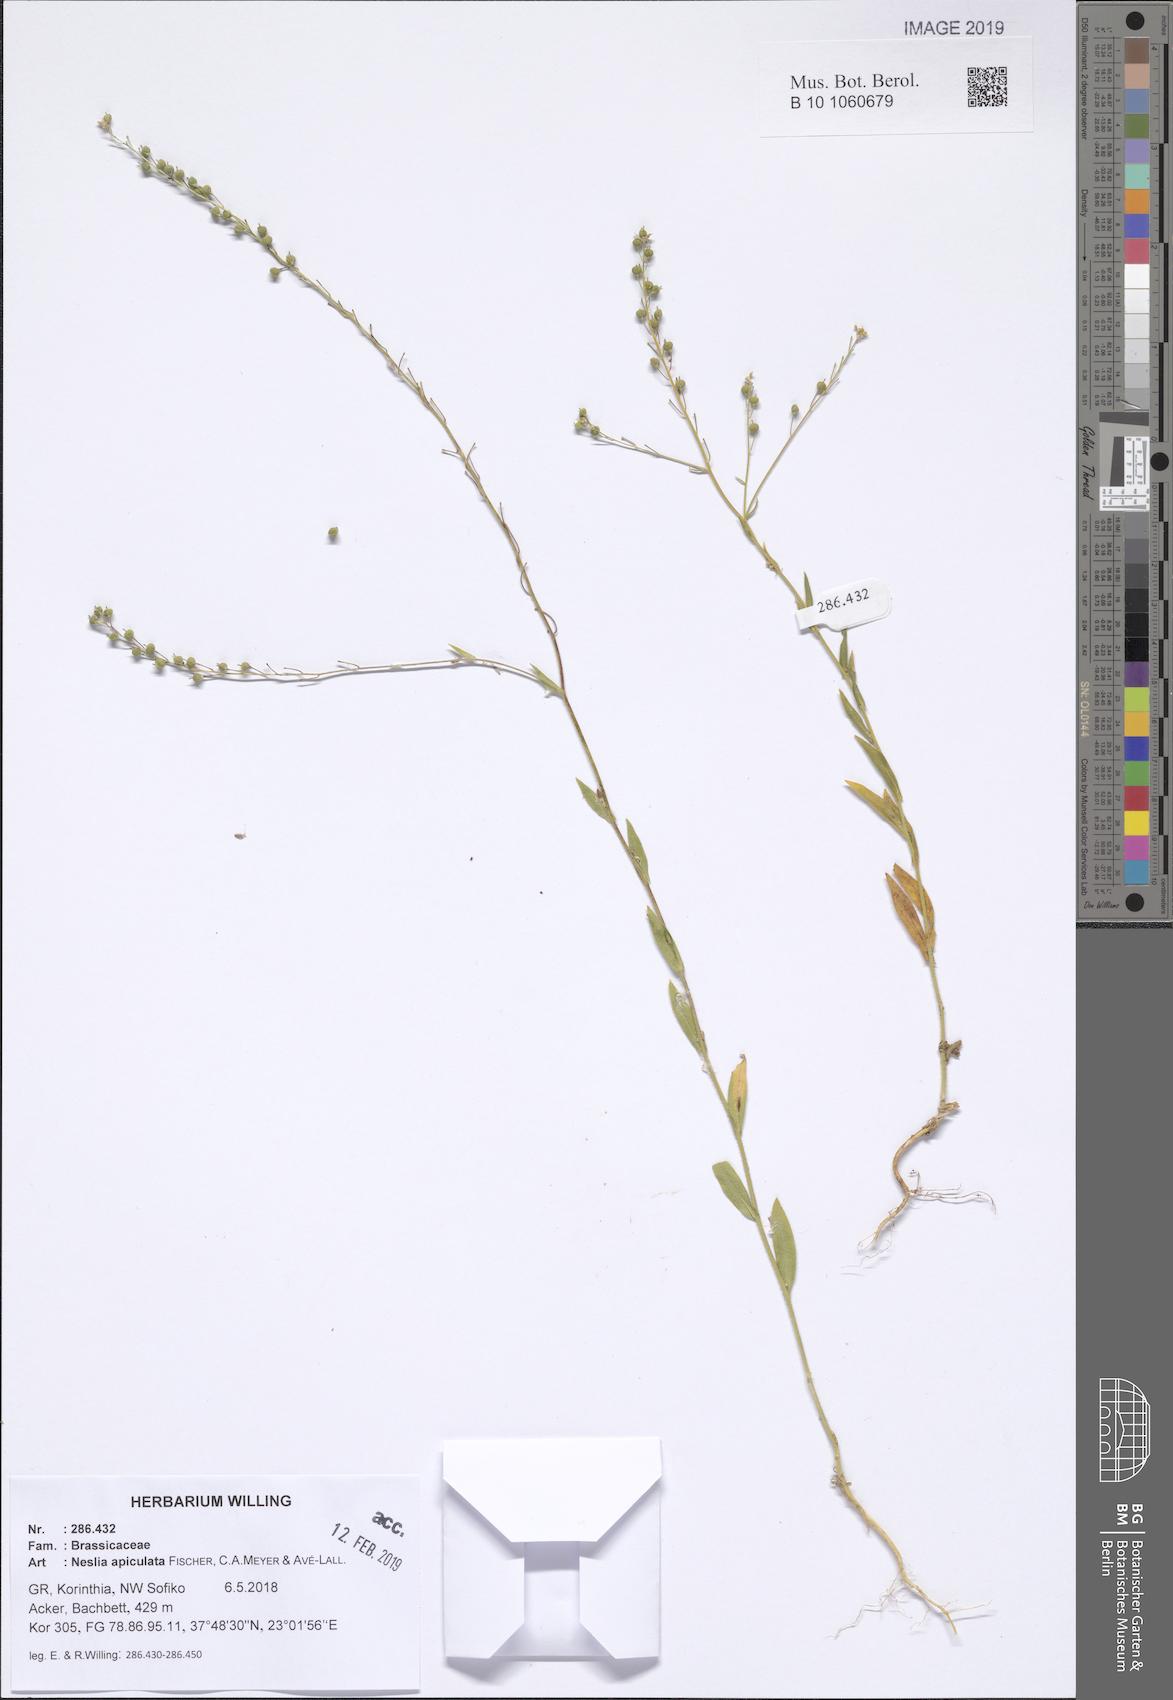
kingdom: Plantae
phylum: Tracheophyta
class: Magnoliopsida
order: Brassicales
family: Brassicaceae
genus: Neslia
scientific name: Neslia paniculata
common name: Ball mustard
